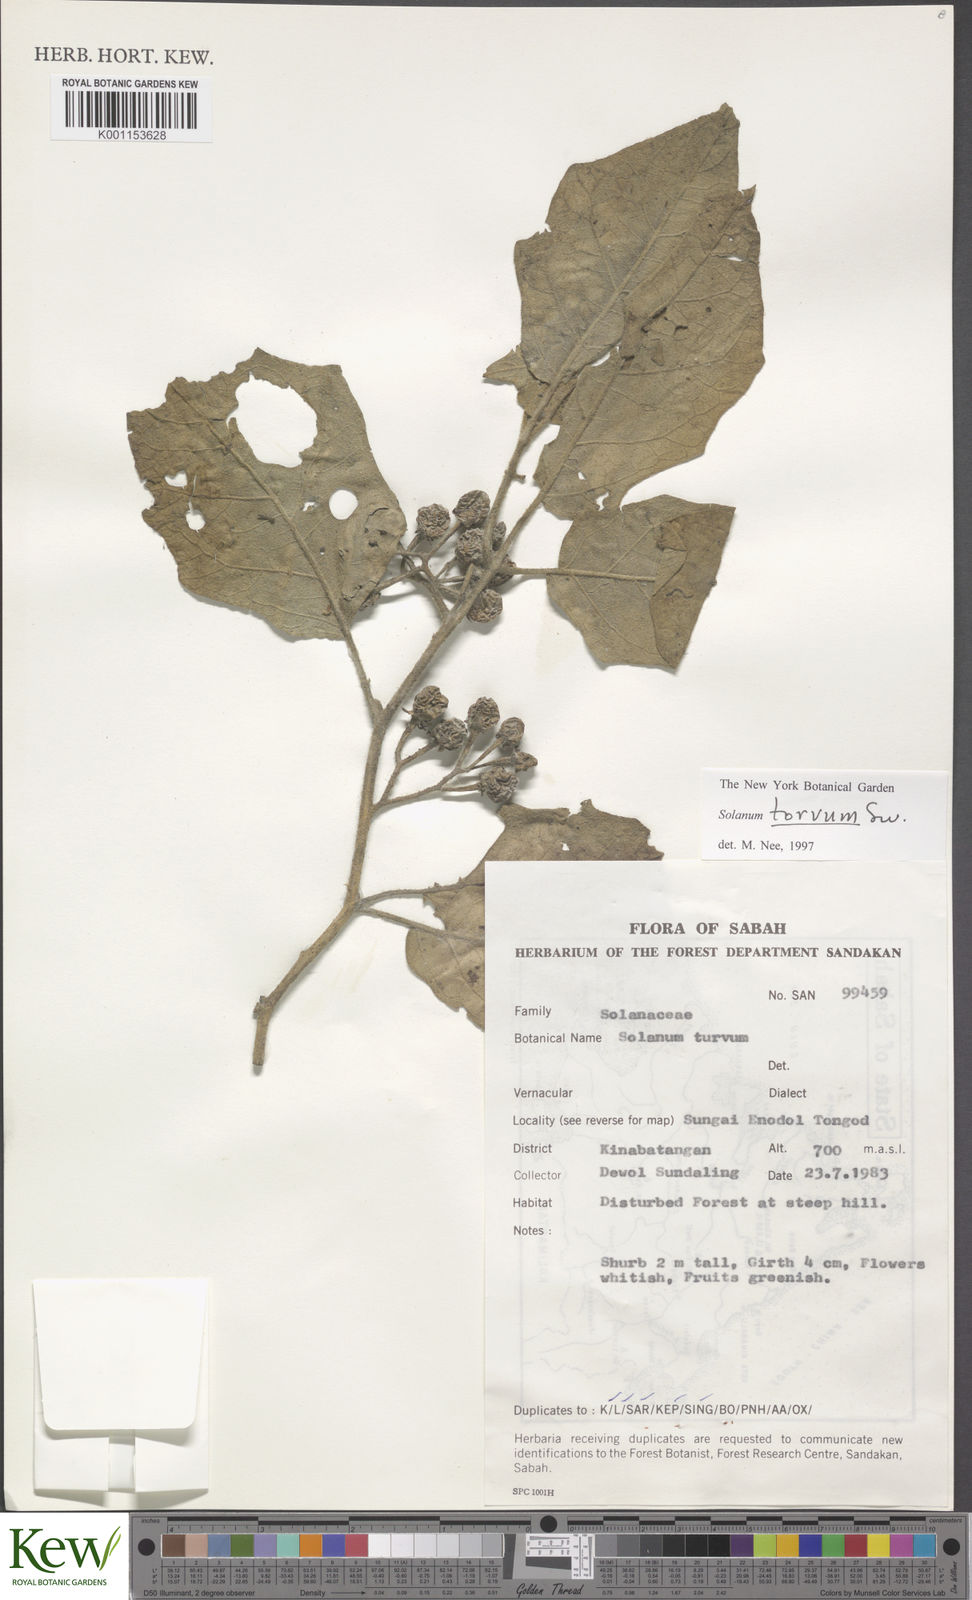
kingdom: Plantae
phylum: Tracheophyta
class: Magnoliopsida
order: Solanales
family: Solanaceae
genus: Solanum
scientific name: Solanum torvum
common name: Turkey berry
